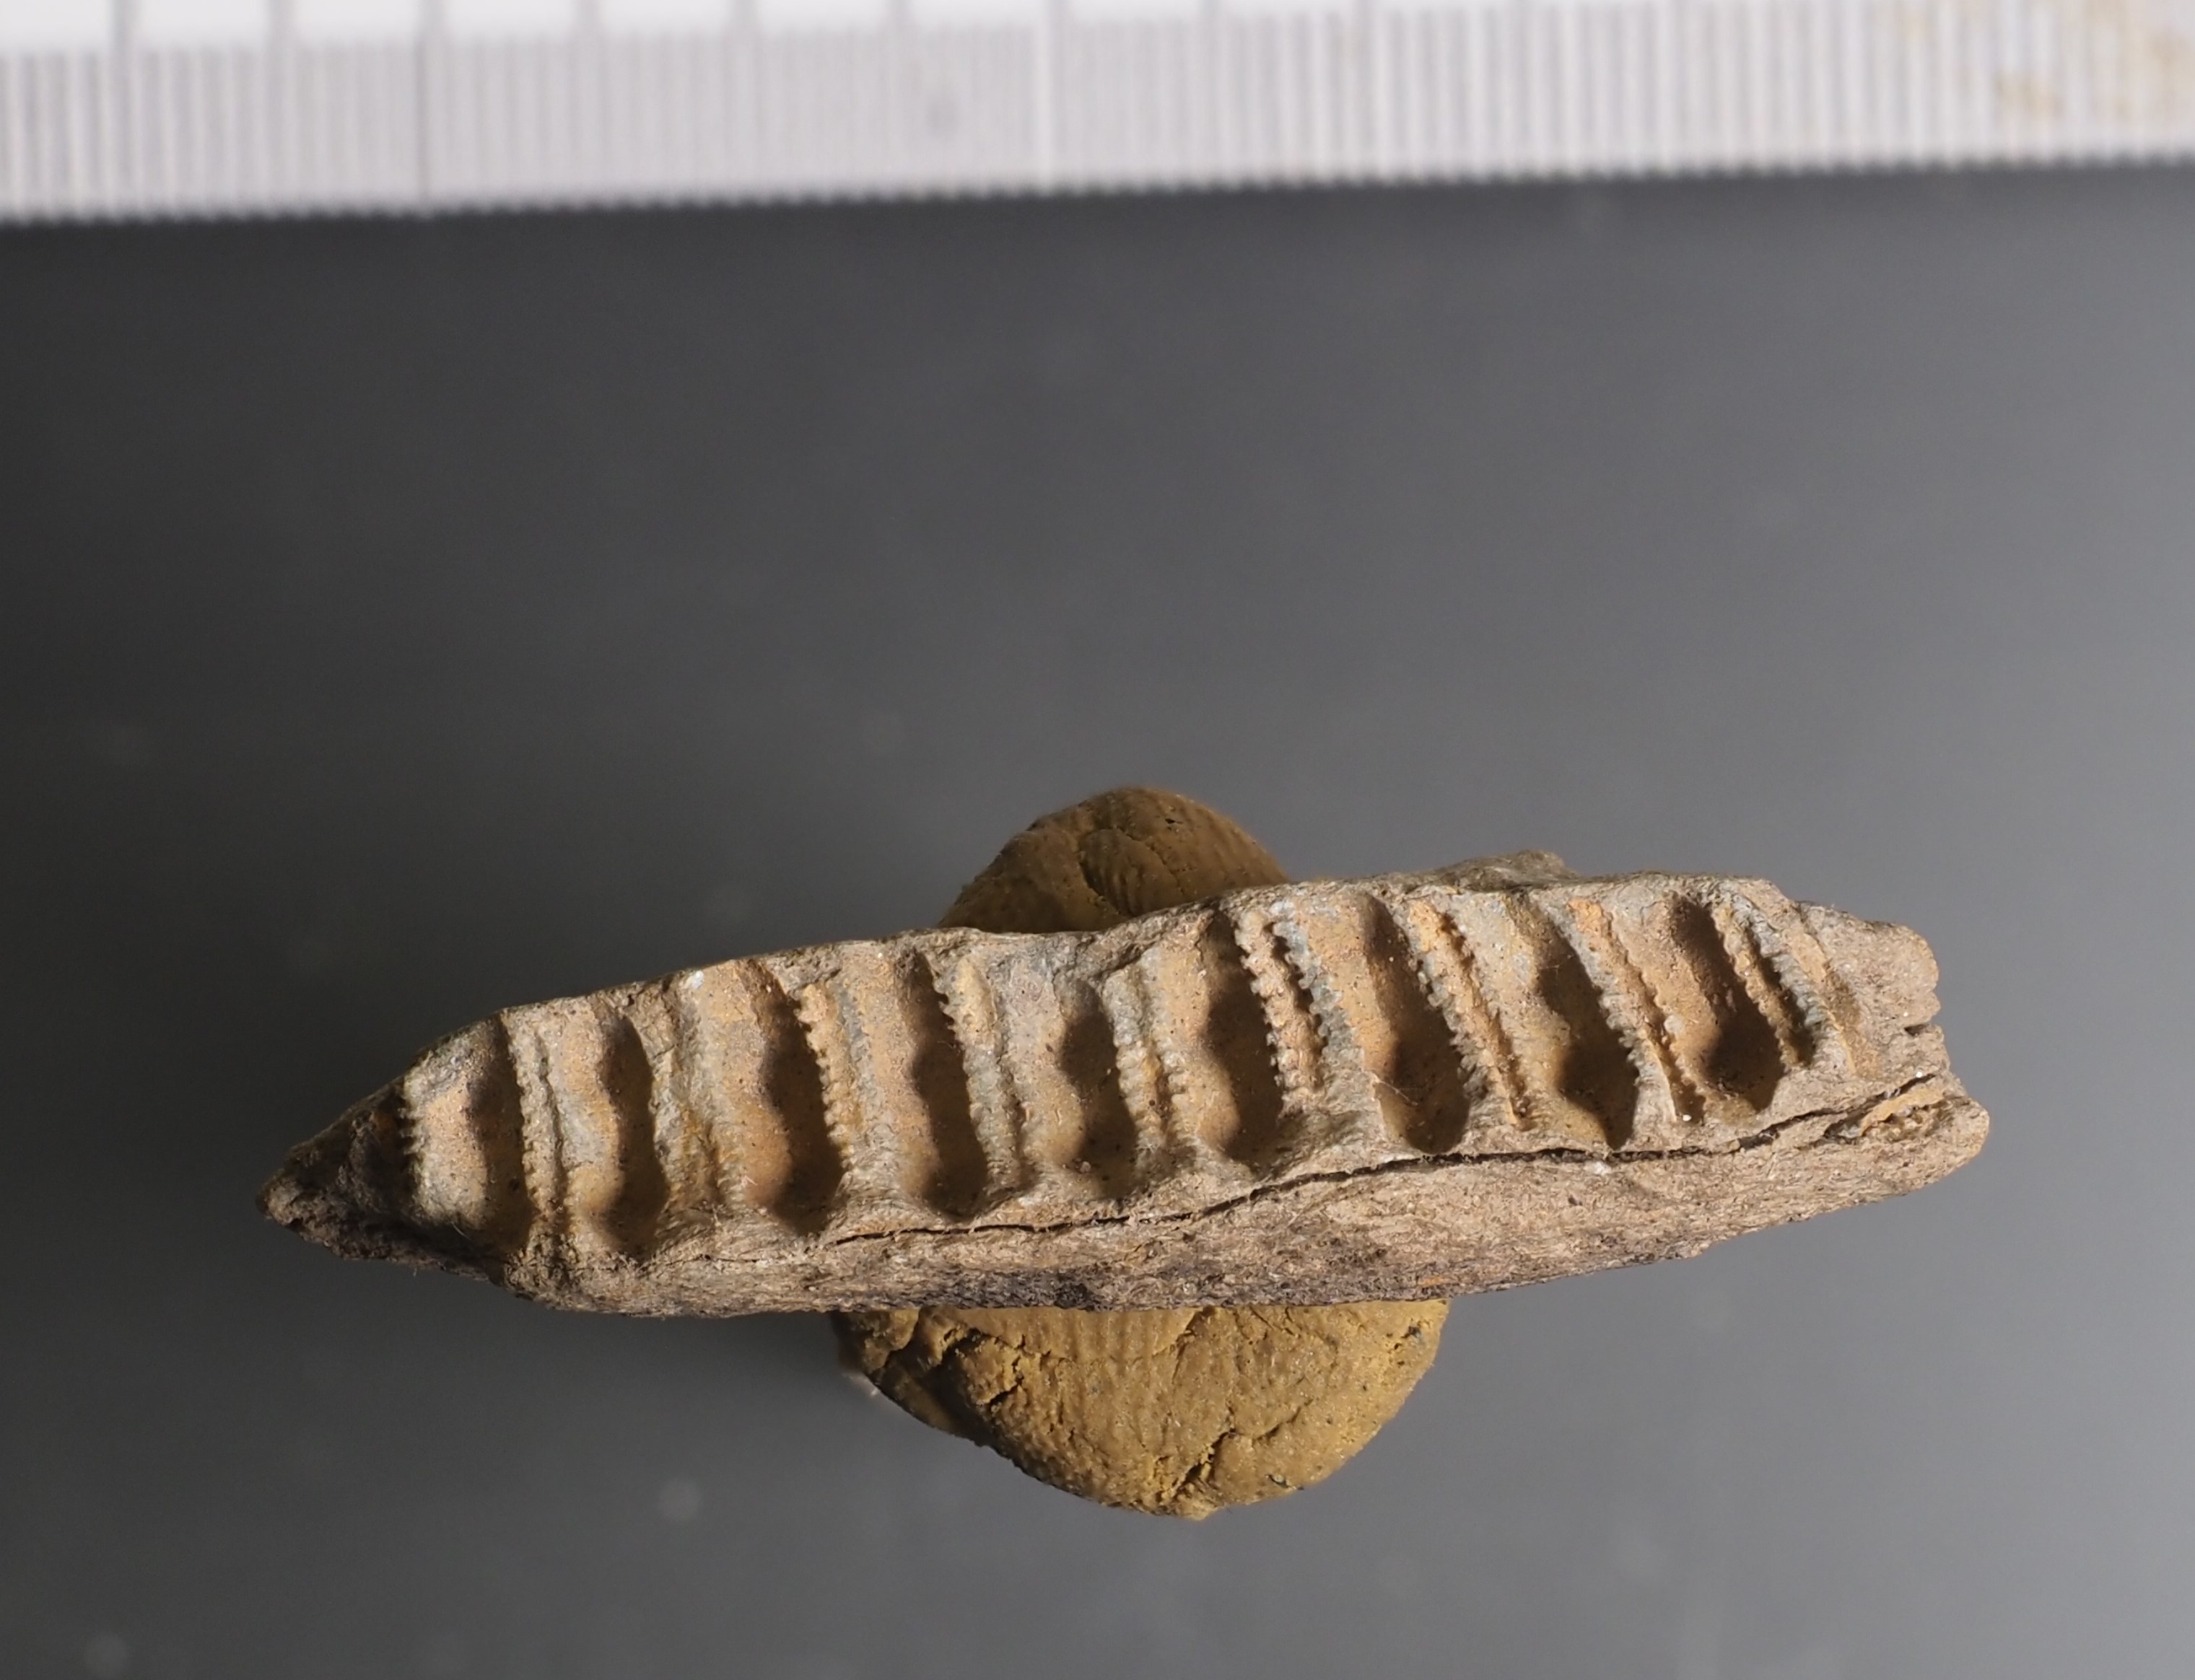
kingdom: Animalia
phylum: Echinodermata
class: Crinoidea
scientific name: Crinoidea
